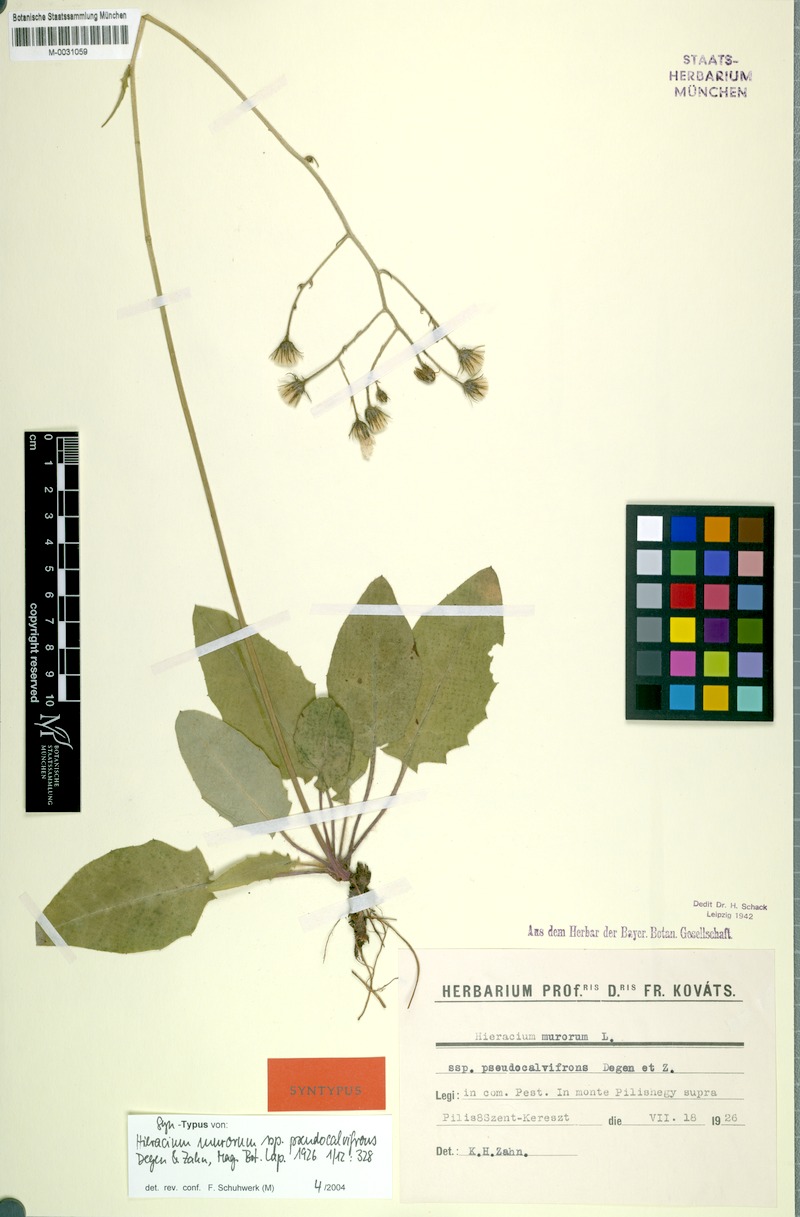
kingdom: Plantae
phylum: Tracheophyta
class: Magnoliopsida
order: Asterales
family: Asteraceae
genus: Hieracium
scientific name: Hieracium murorum
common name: Wall hawkweed
